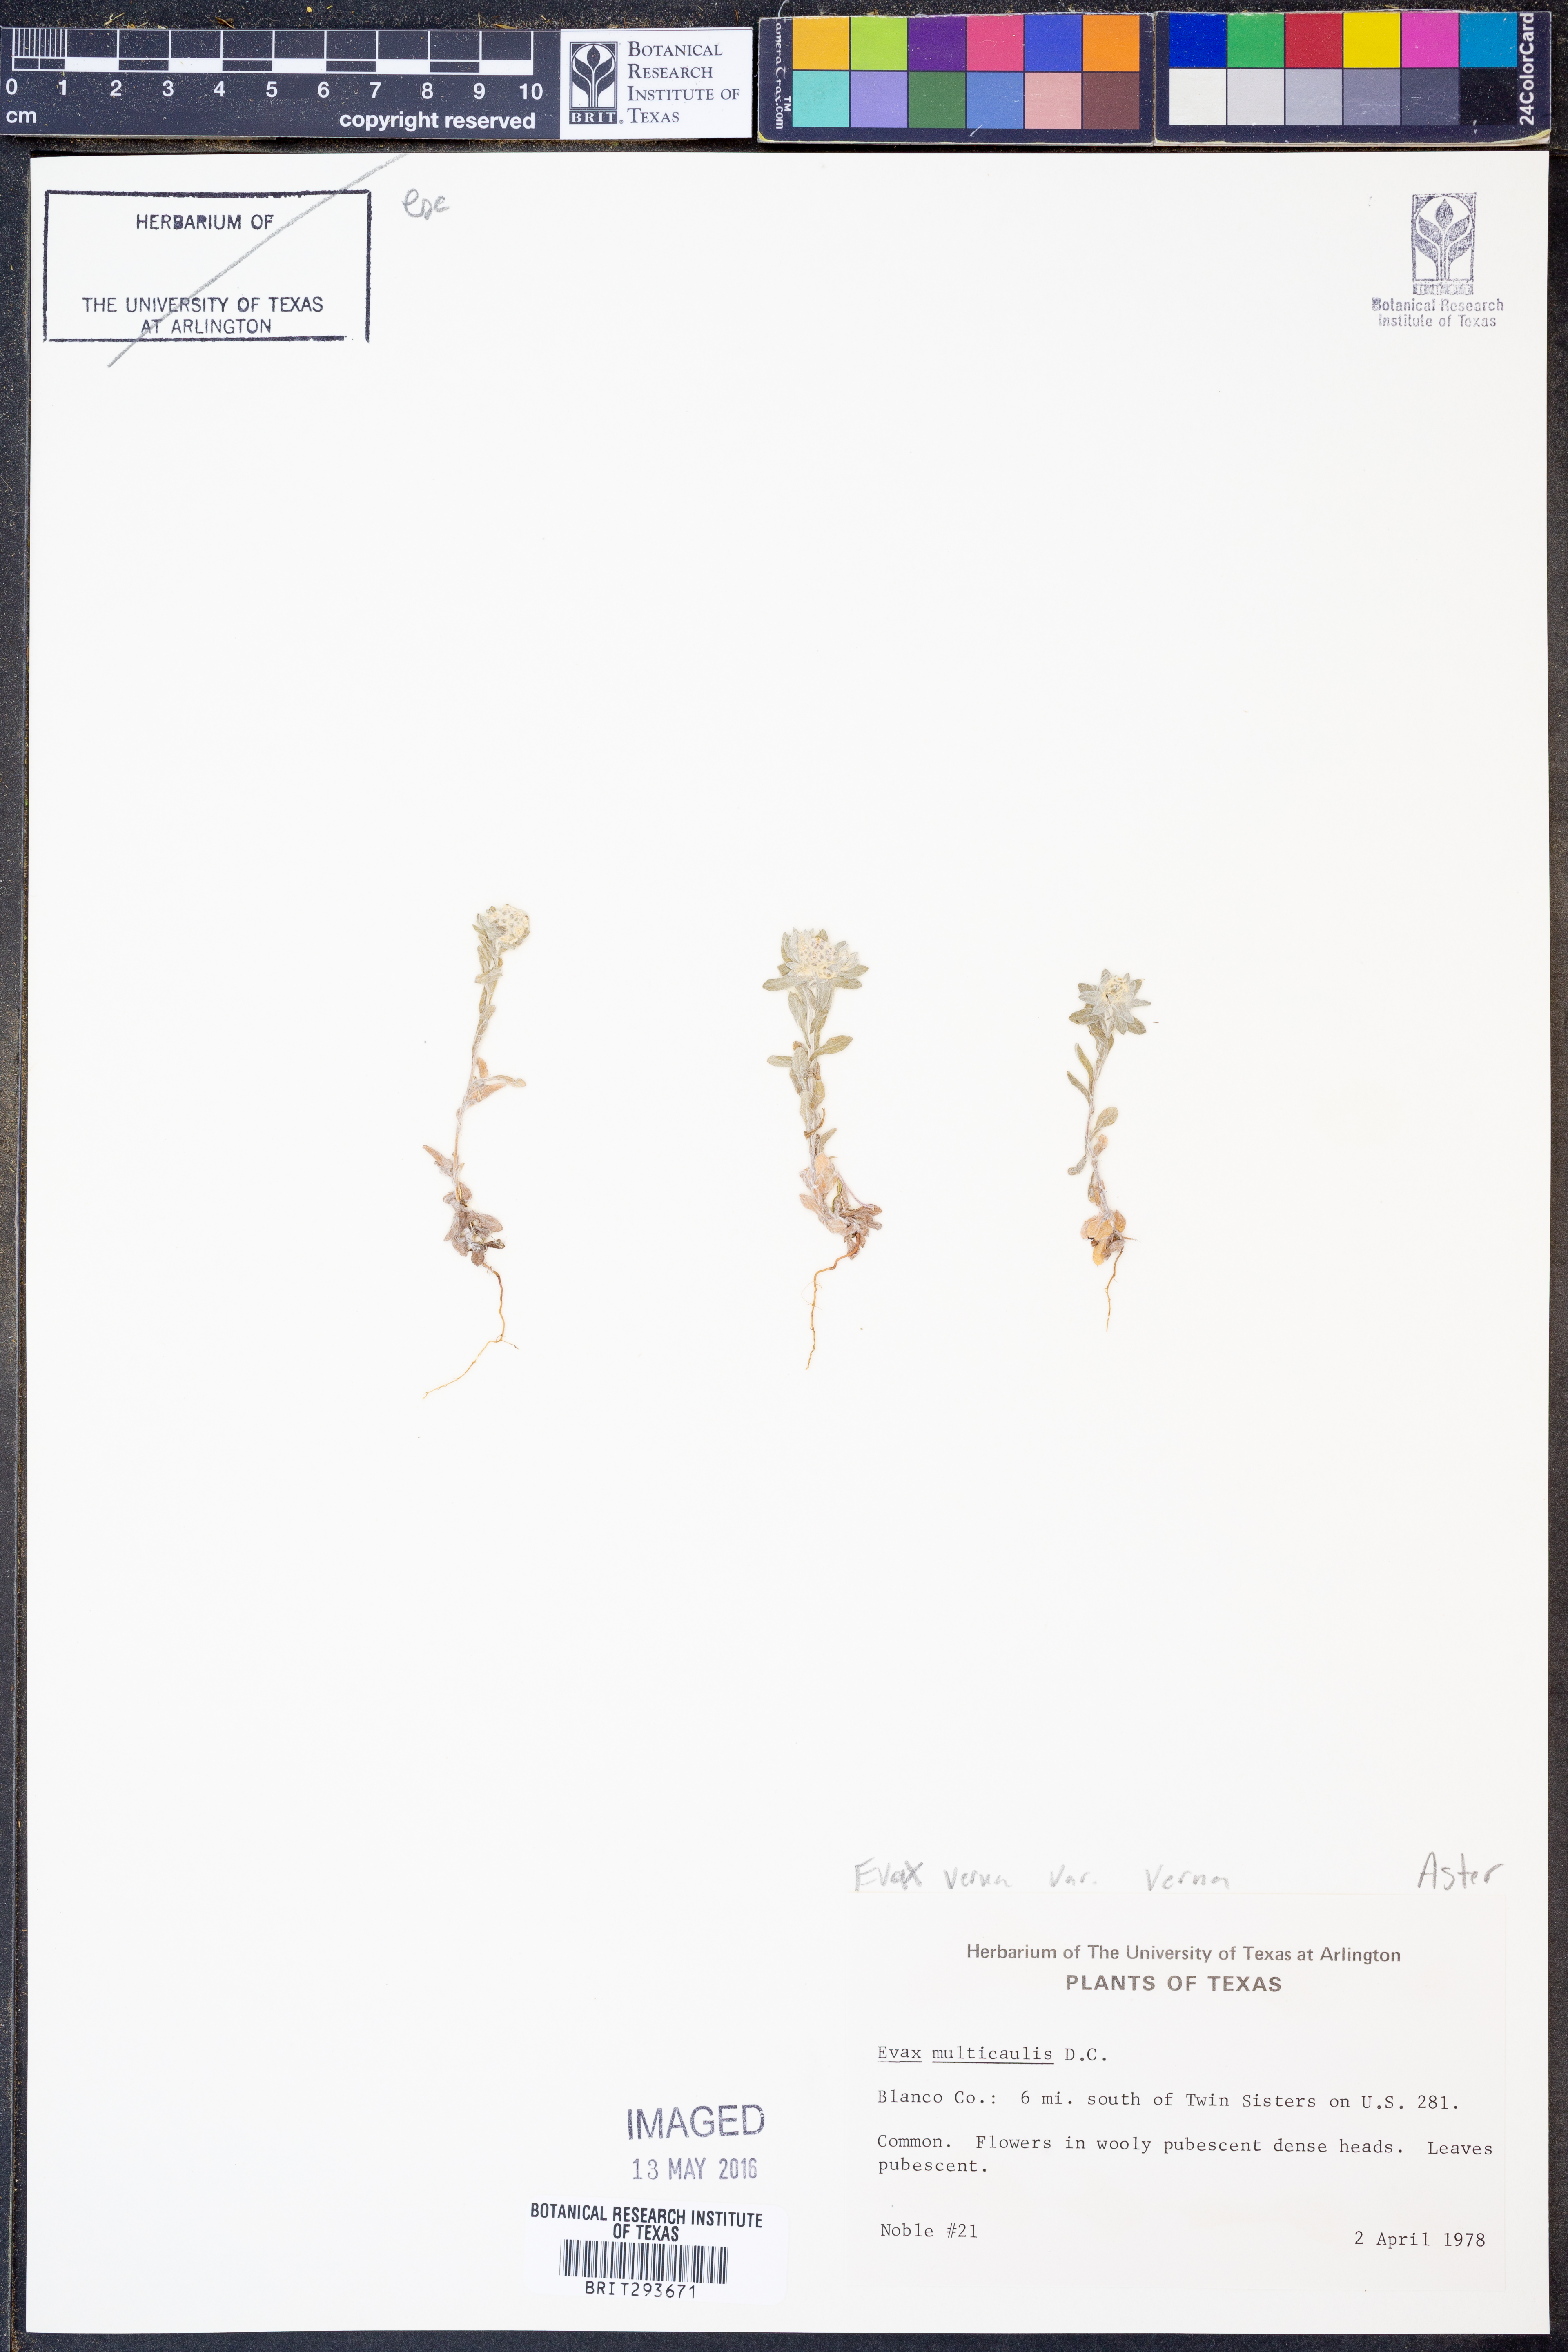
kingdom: Plantae
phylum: Tracheophyta
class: Magnoliopsida
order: Asterales
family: Asteraceae
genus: Diaperia
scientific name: Diaperia verna
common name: Many-stem rabbit-tobacco
